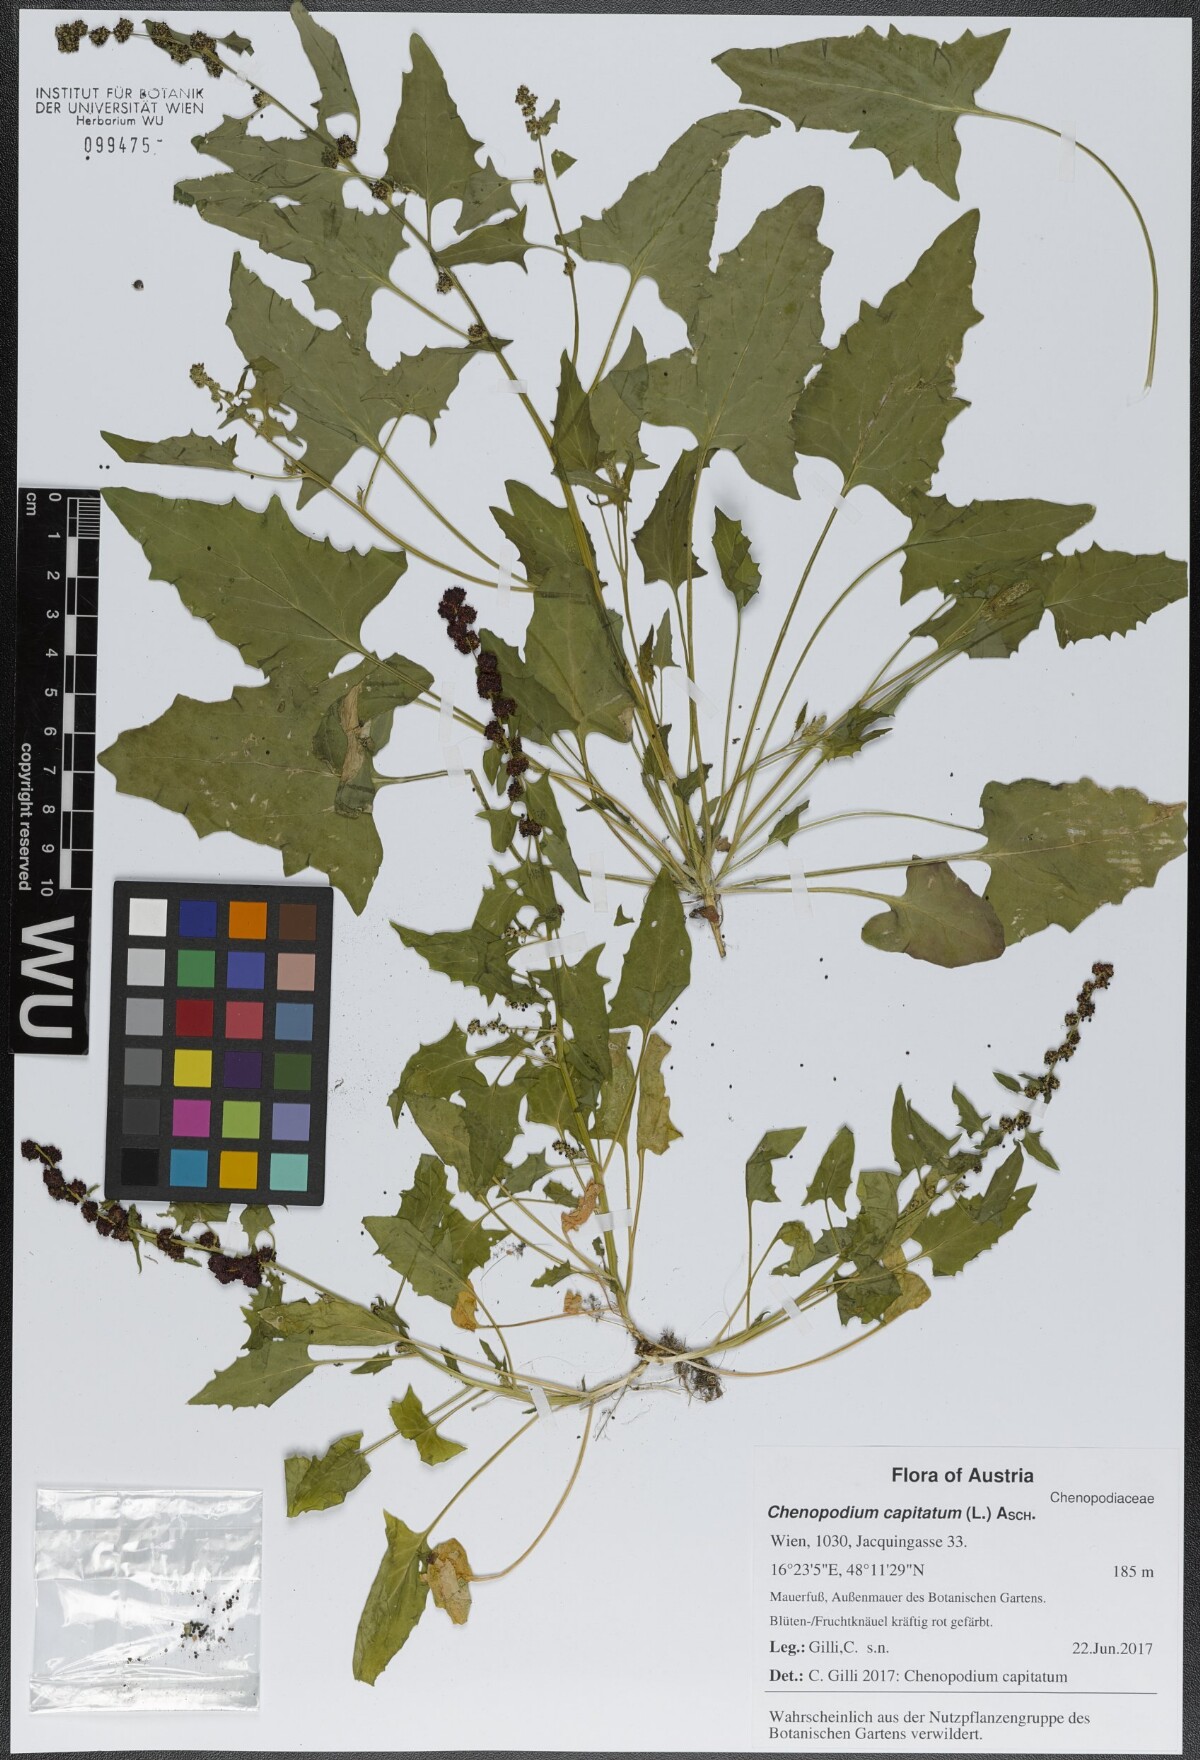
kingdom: Plantae
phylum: Tracheophyta
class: Magnoliopsida
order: Caryophyllales
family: Amaranthaceae
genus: Blitum
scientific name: Blitum capitatum
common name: Strawberry-blight
